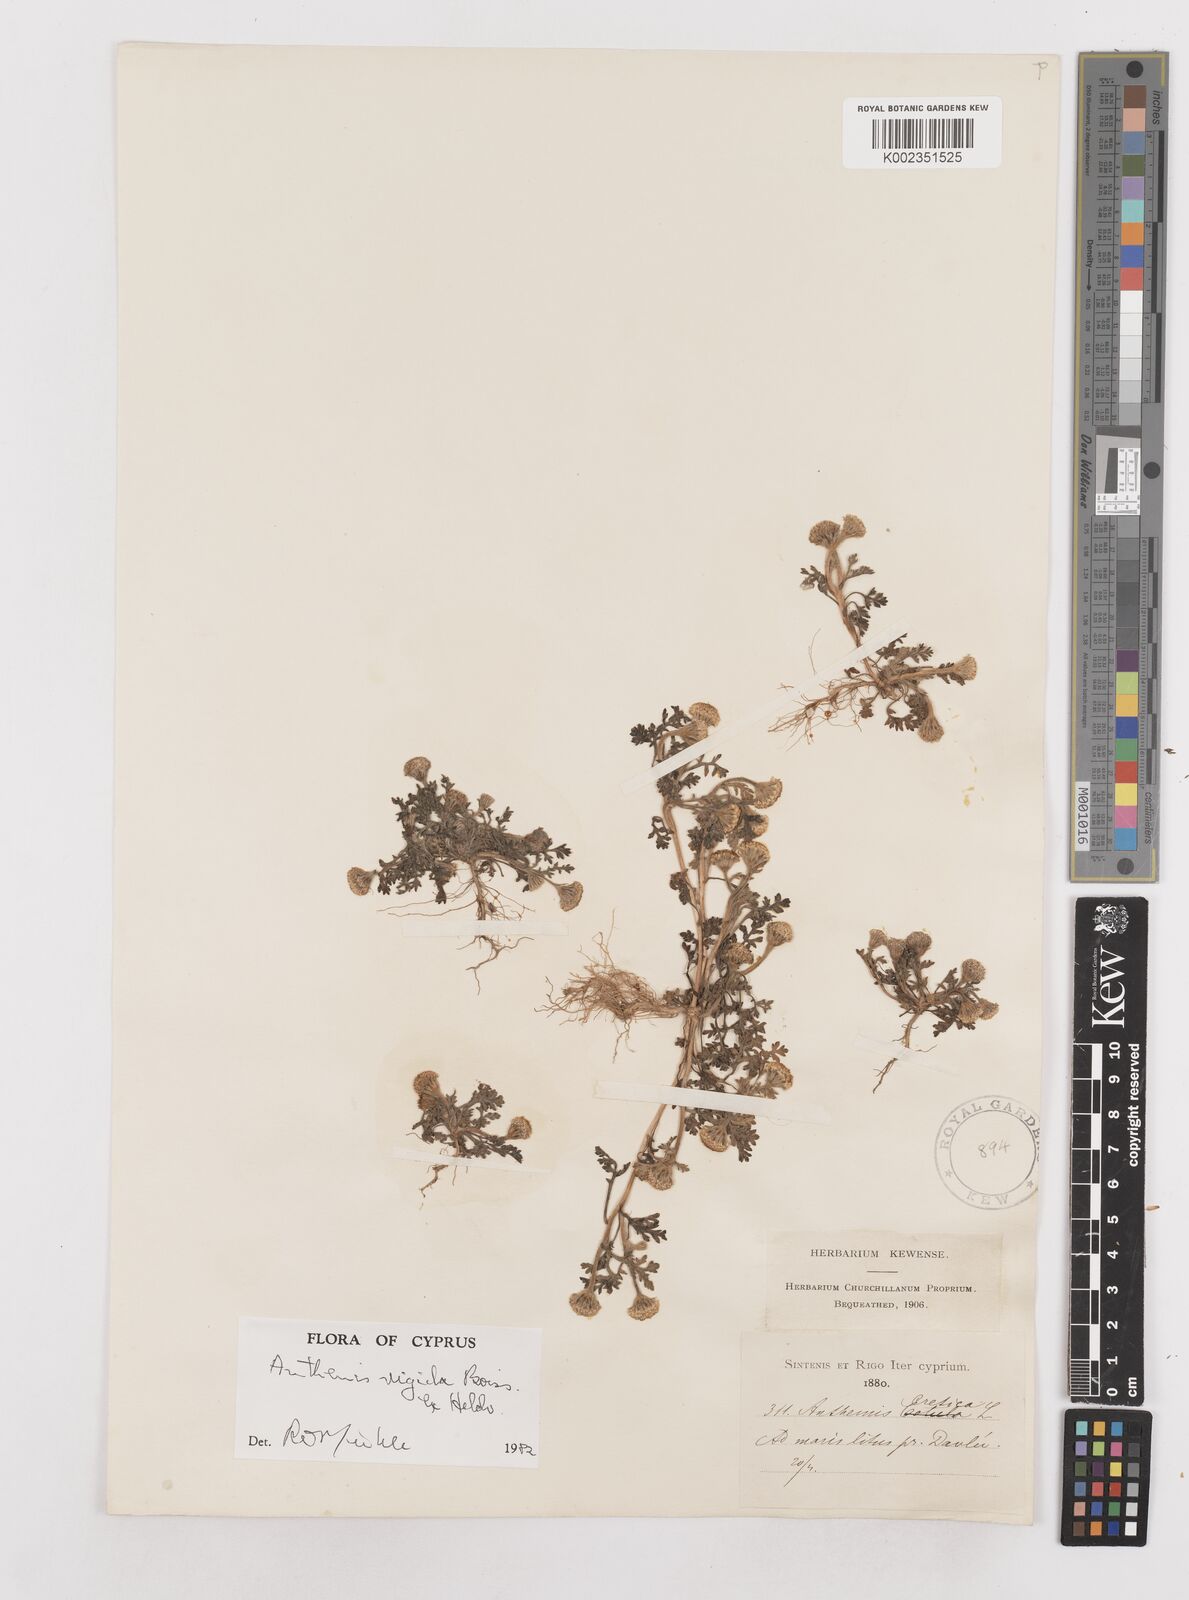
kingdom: Plantae
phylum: Tracheophyta
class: Magnoliopsida
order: Asterales
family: Asteraceae
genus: Anthemis
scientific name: Anthemis rigida
